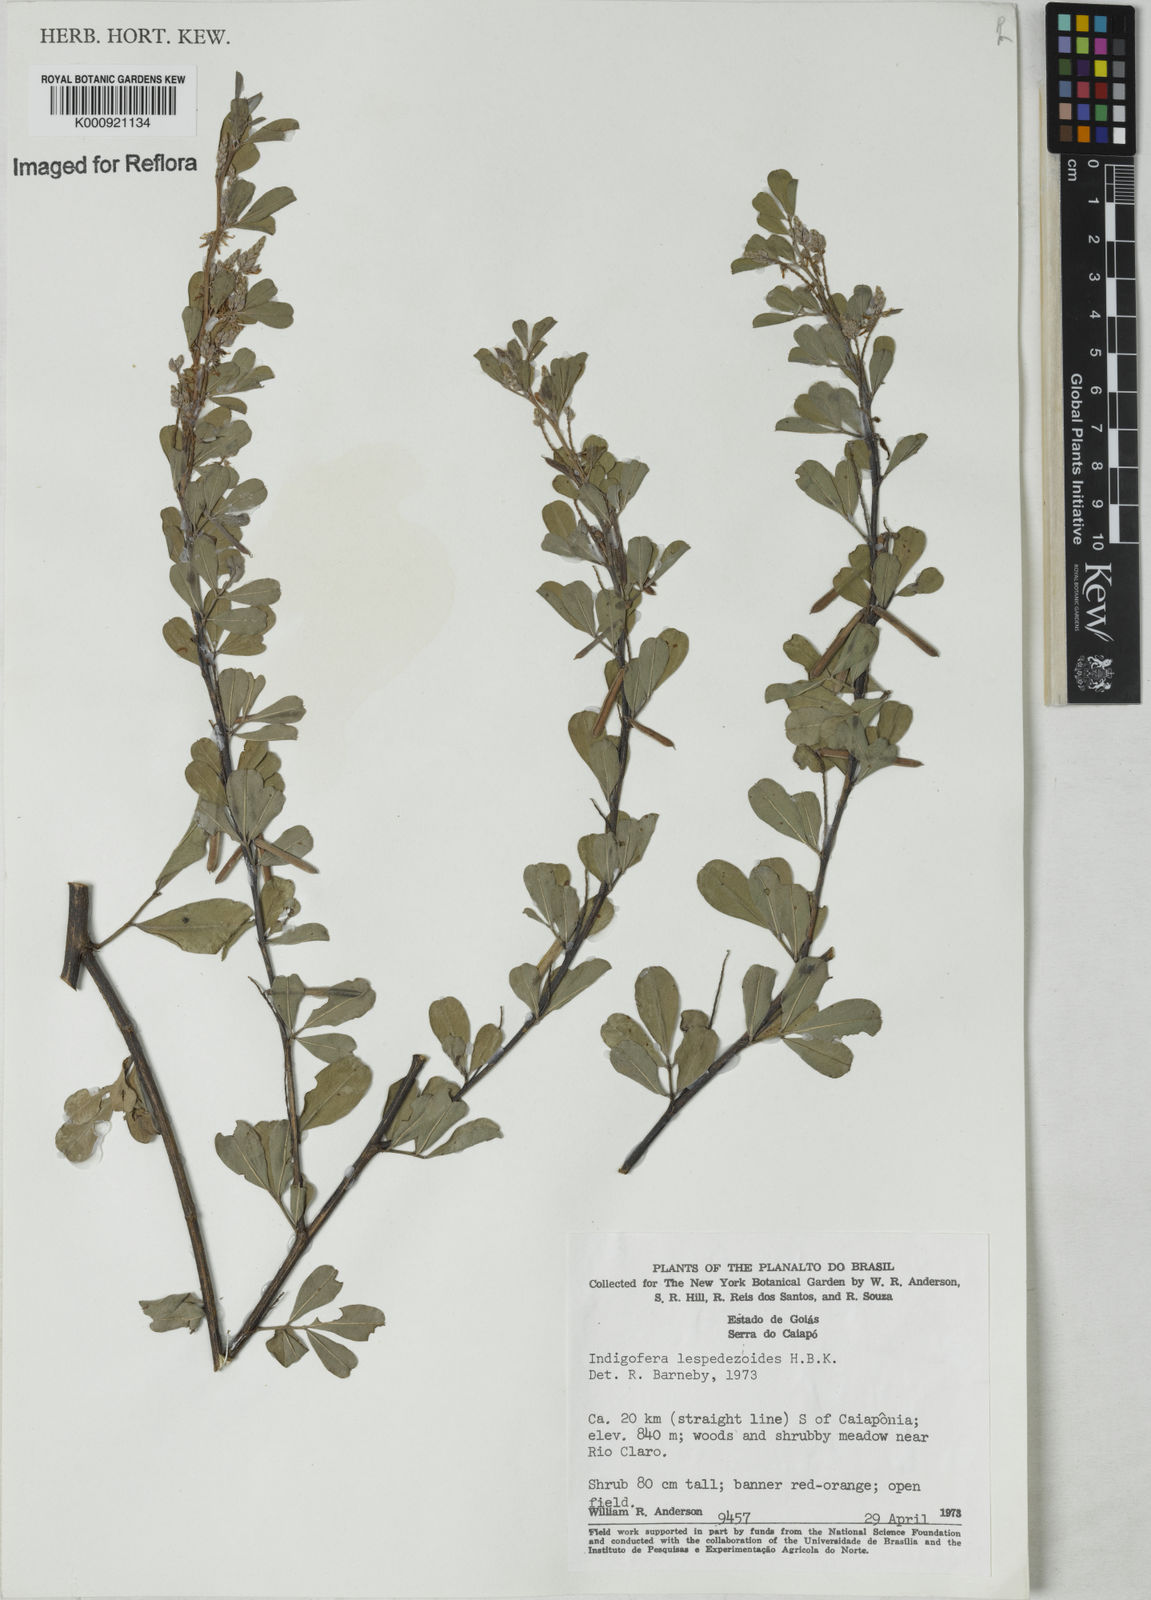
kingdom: Plantae
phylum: Tracheophyta
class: Magnoliopsida
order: Fabales
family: Fabaceae
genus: Indigofera
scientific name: Indigofera lespedezioides
